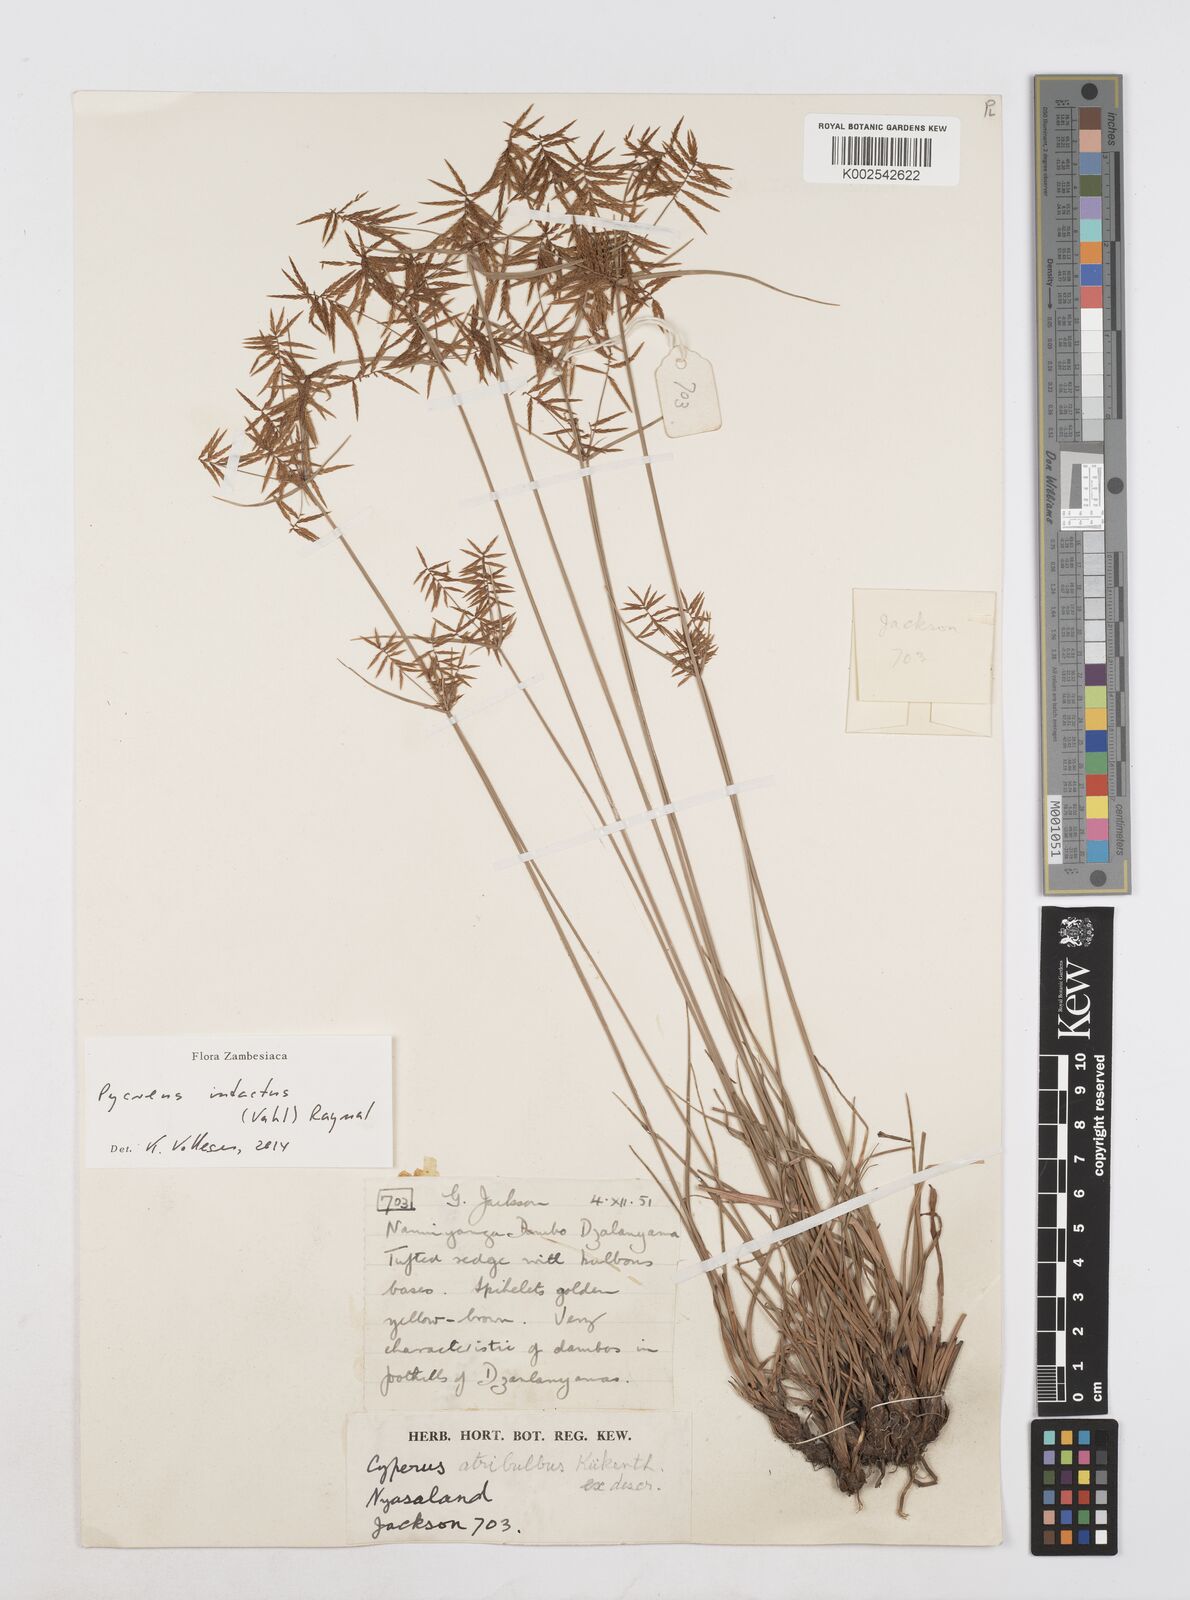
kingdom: Plantae
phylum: Tracheophyta
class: Liliopsida
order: Poales
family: Cyperaceae
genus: Cyperus
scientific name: Cyperus intactus
